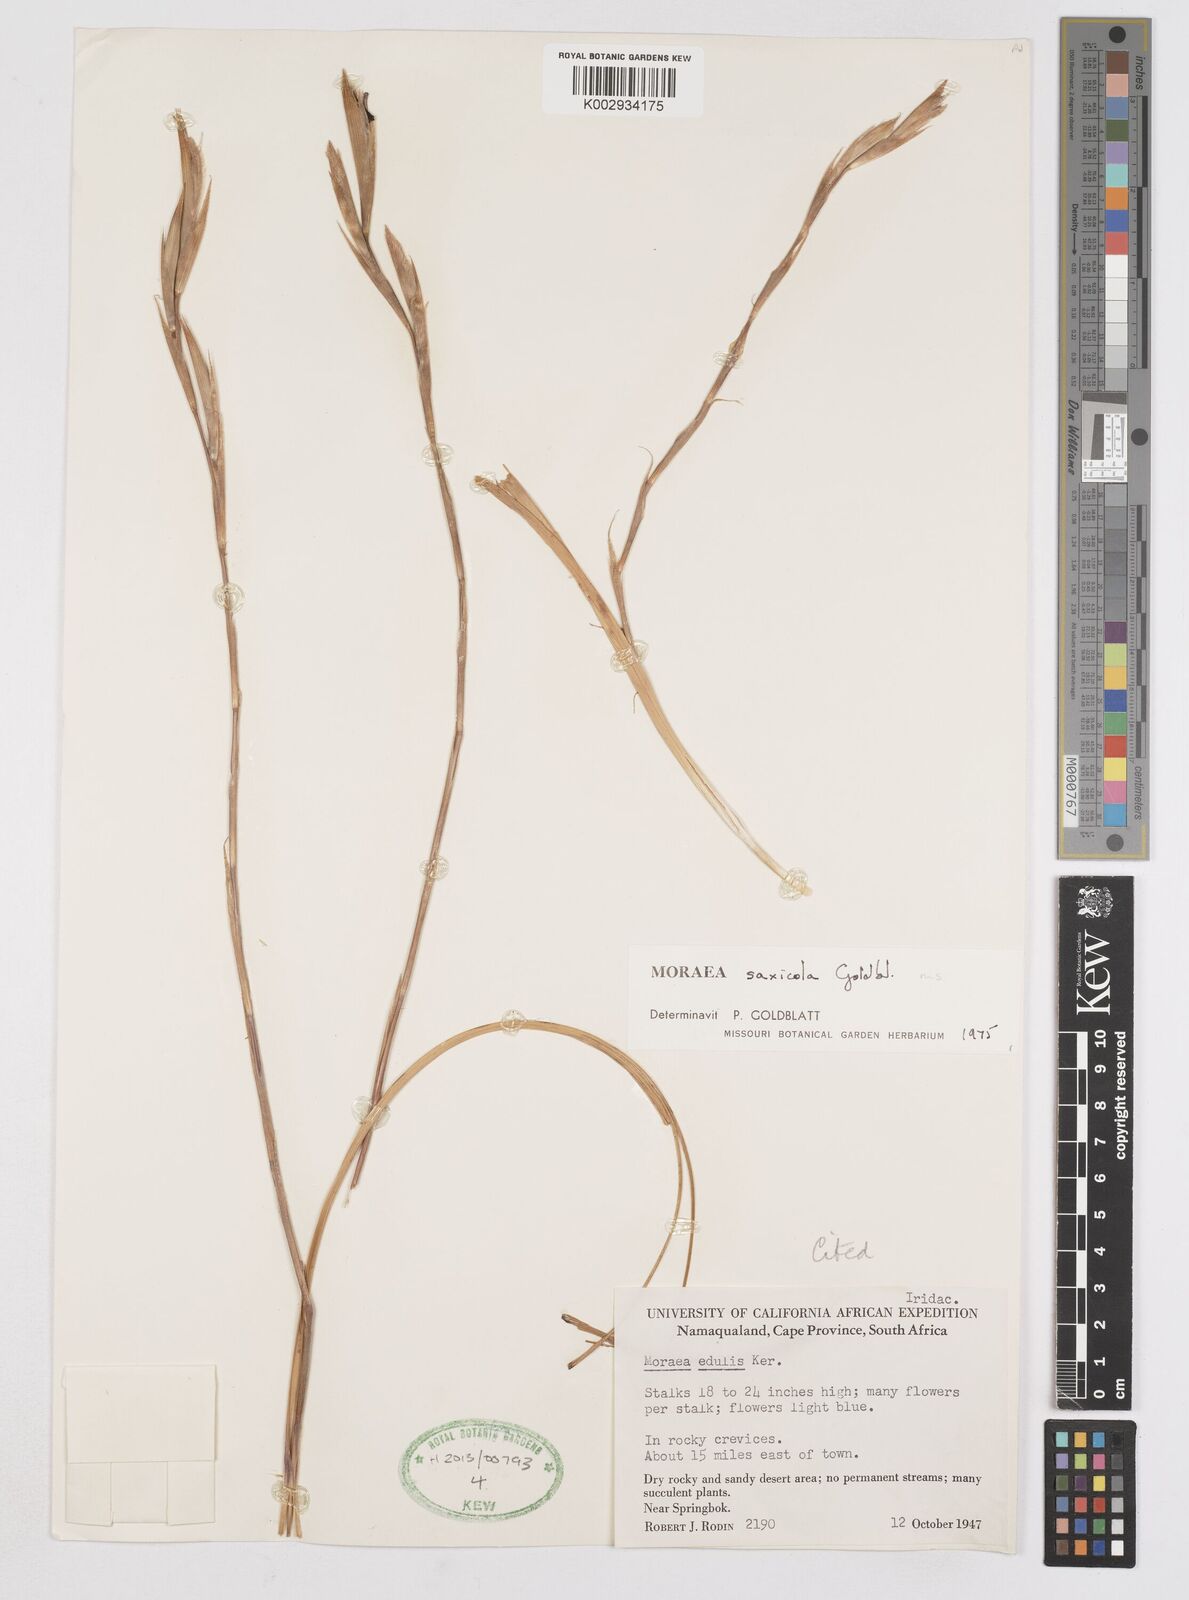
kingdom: Plantae
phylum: Tracheophyta
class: Liliopsida
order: Asparagales
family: Iridaceae
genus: Moraea
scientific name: Moraea saxicola
